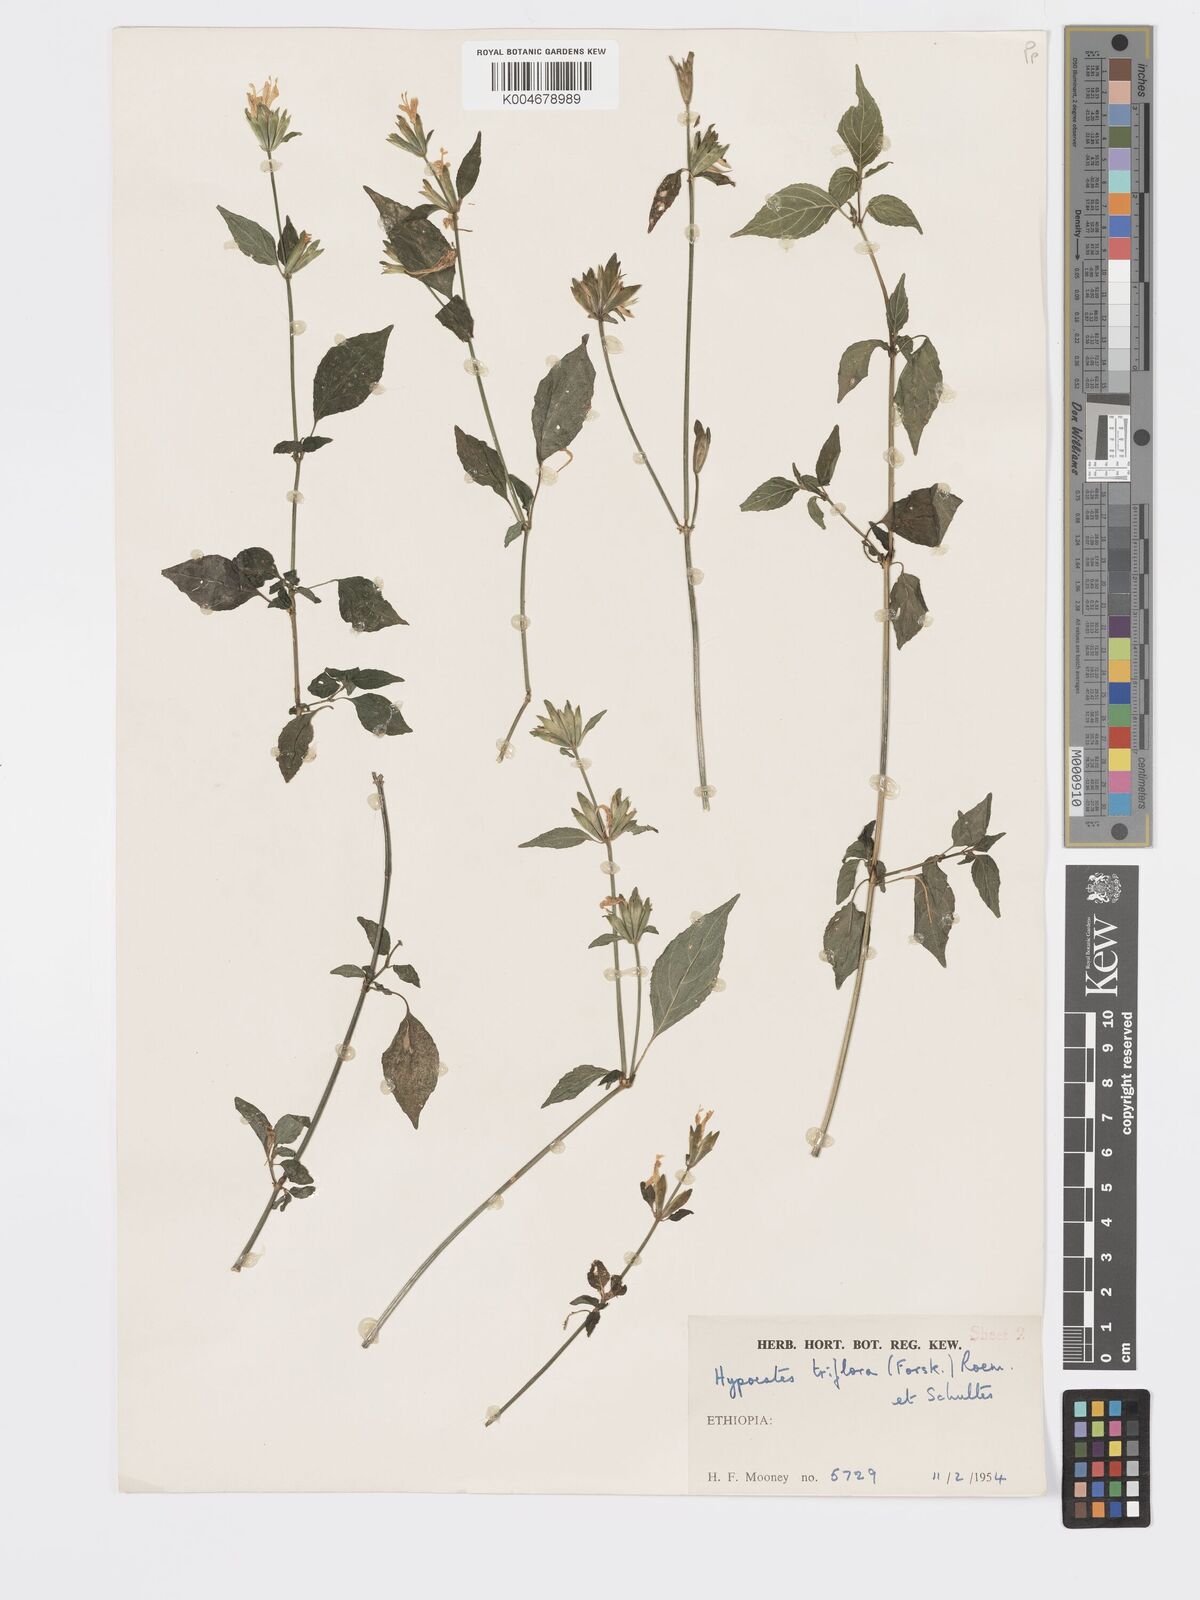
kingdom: Plantae
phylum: Tracheophyta
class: Magnoliopsida
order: Lamiales
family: Acanthaceae
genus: Hypoestes
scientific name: Hypoestes triflora
